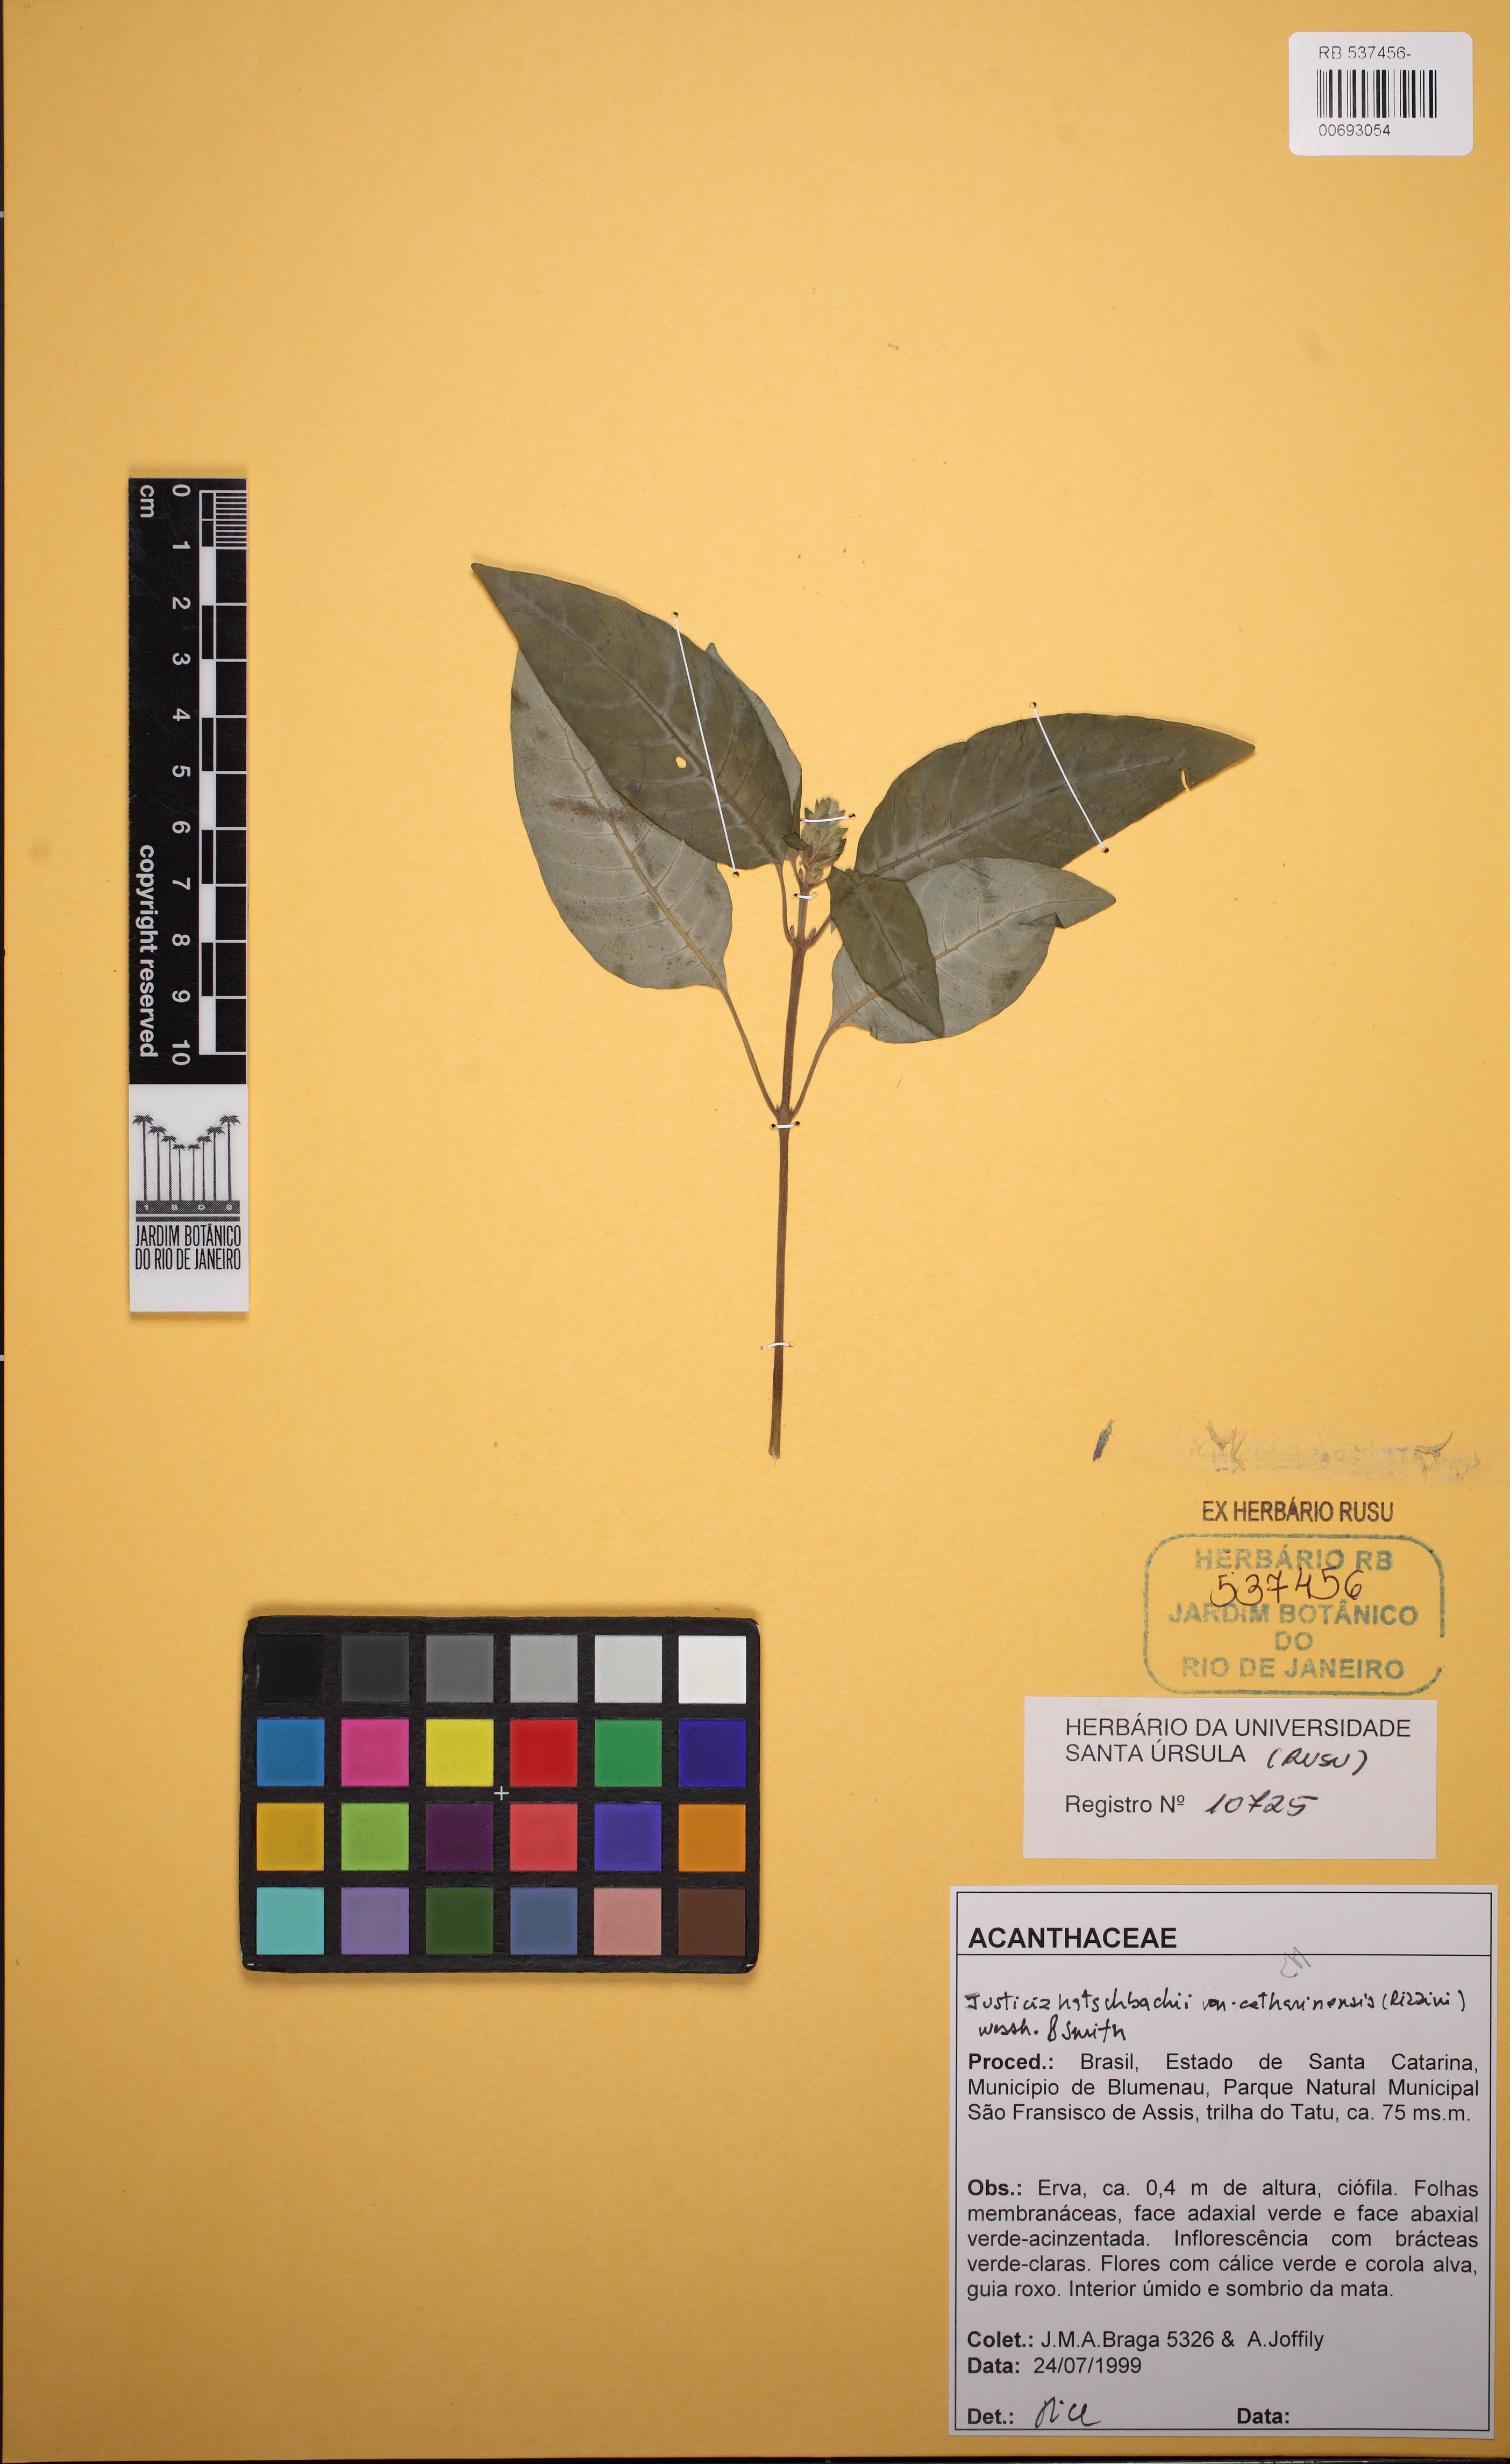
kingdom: Plantae
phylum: Tracheophyta
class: Magnoliopsida
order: Lamiales
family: Acanthaceae
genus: Justicia
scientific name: Justicia hatschbachii
